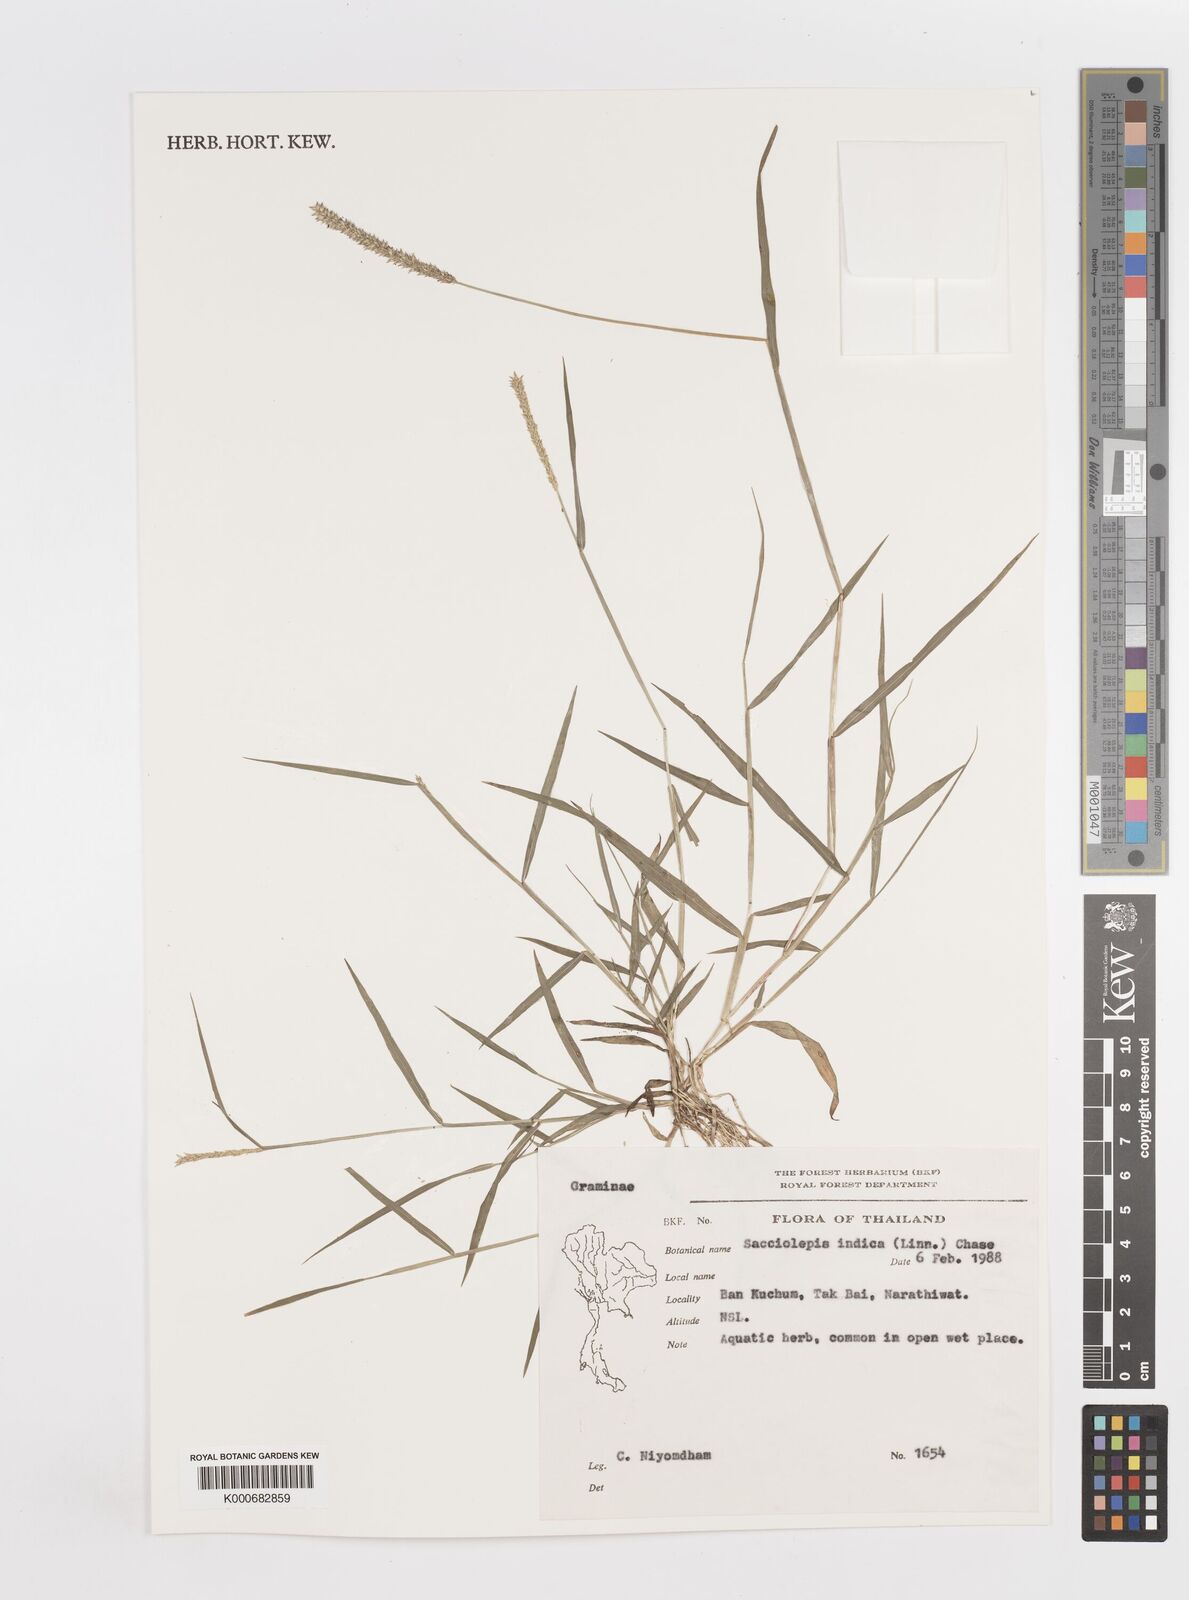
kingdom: Plantae
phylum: Tracheophyta
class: Liliopsida
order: Poales
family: Poaceae
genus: Sacciolepis
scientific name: Sacciolepis indica
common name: Glenwoodgrass
